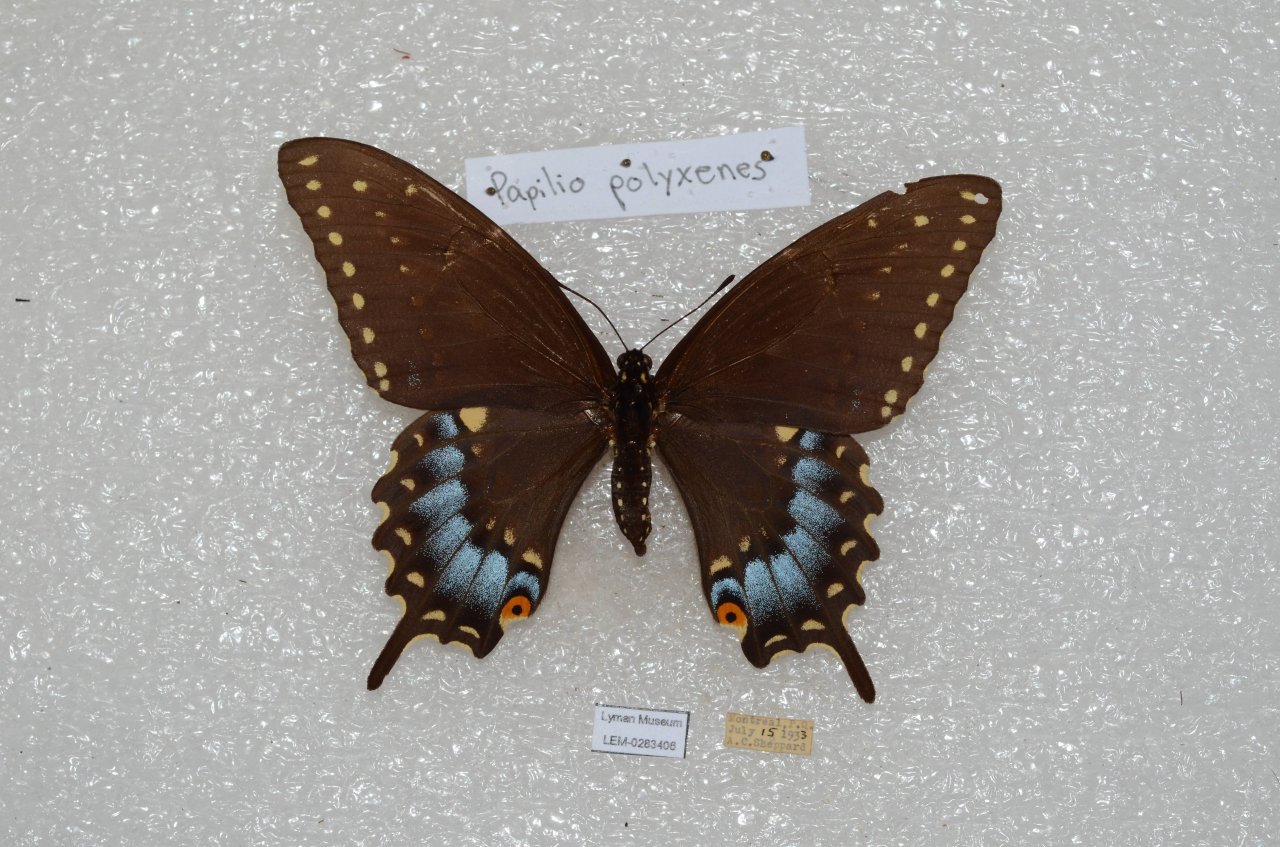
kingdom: Animalia
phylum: Arthropoda
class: Insecta
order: Lepidoptera
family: Papilionidae
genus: Papilio
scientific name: Papilio polyxenes
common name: Black Swallowtail
